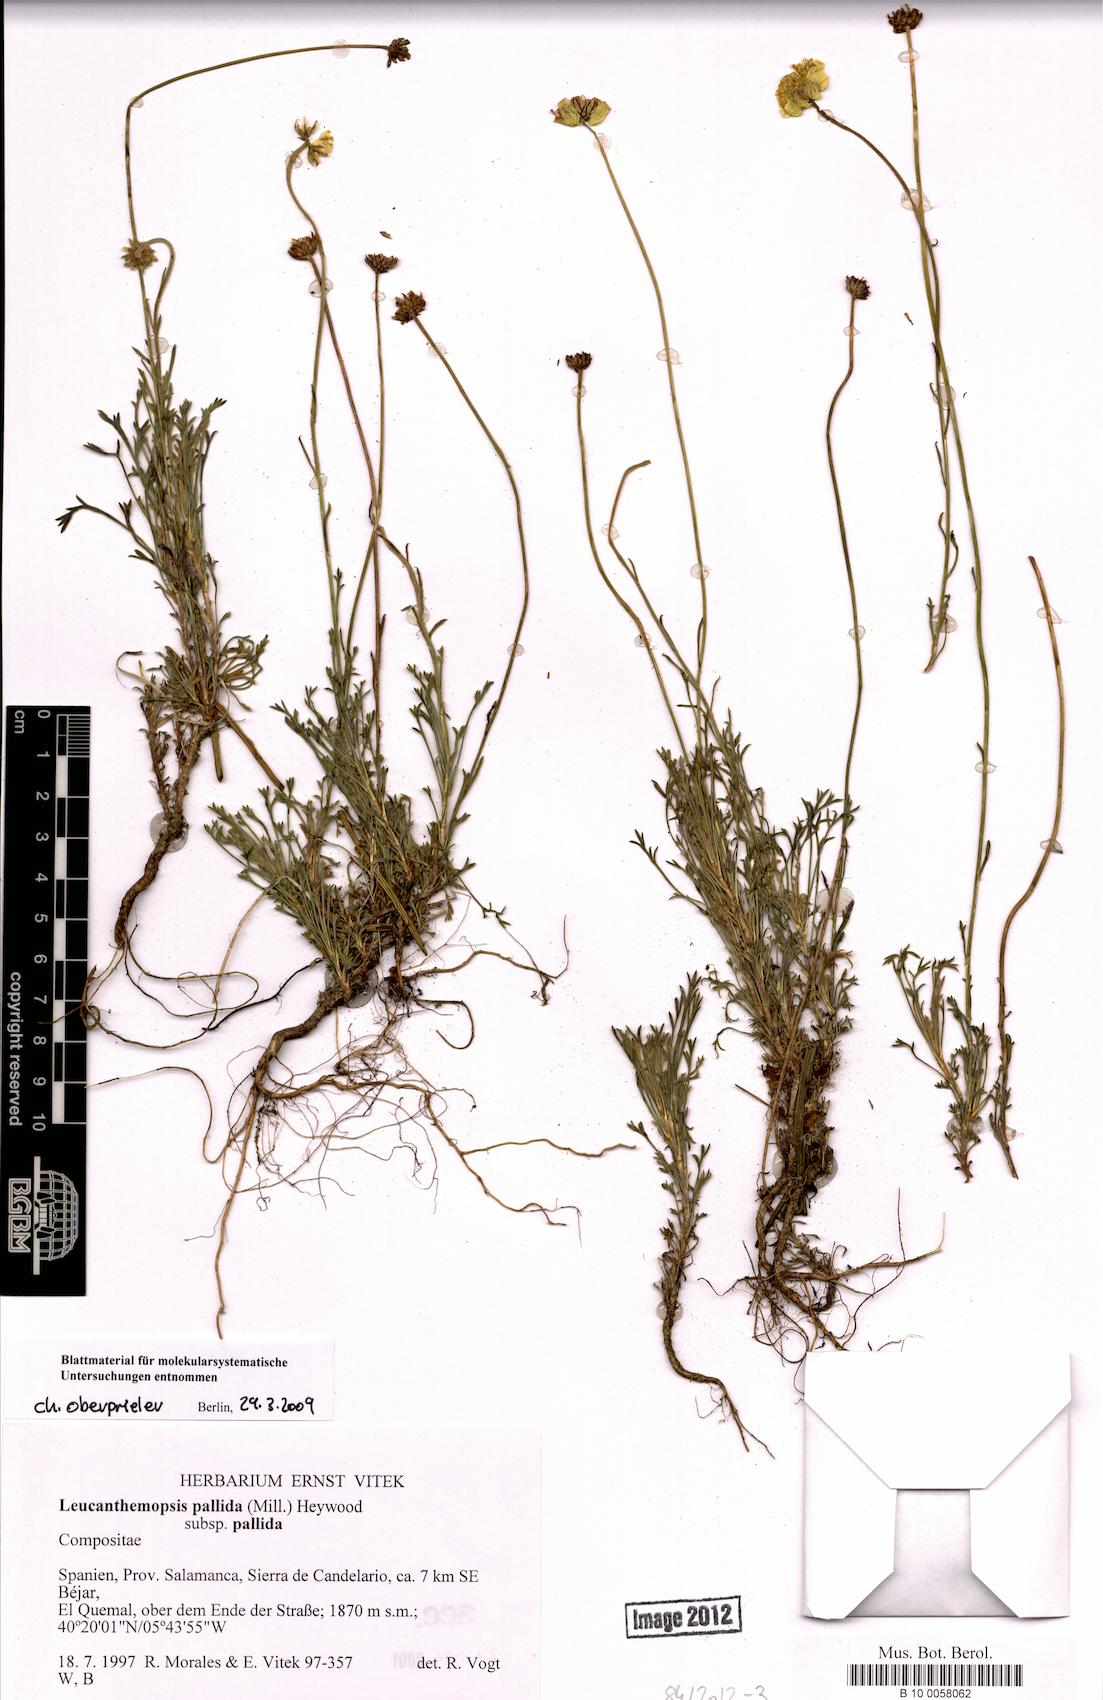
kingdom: Plantae
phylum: Tracheophyta
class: Magnoliopsida
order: Asterales
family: Asteraceae
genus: Leucanthemopsis
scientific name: Leucanthemopsis pallida
